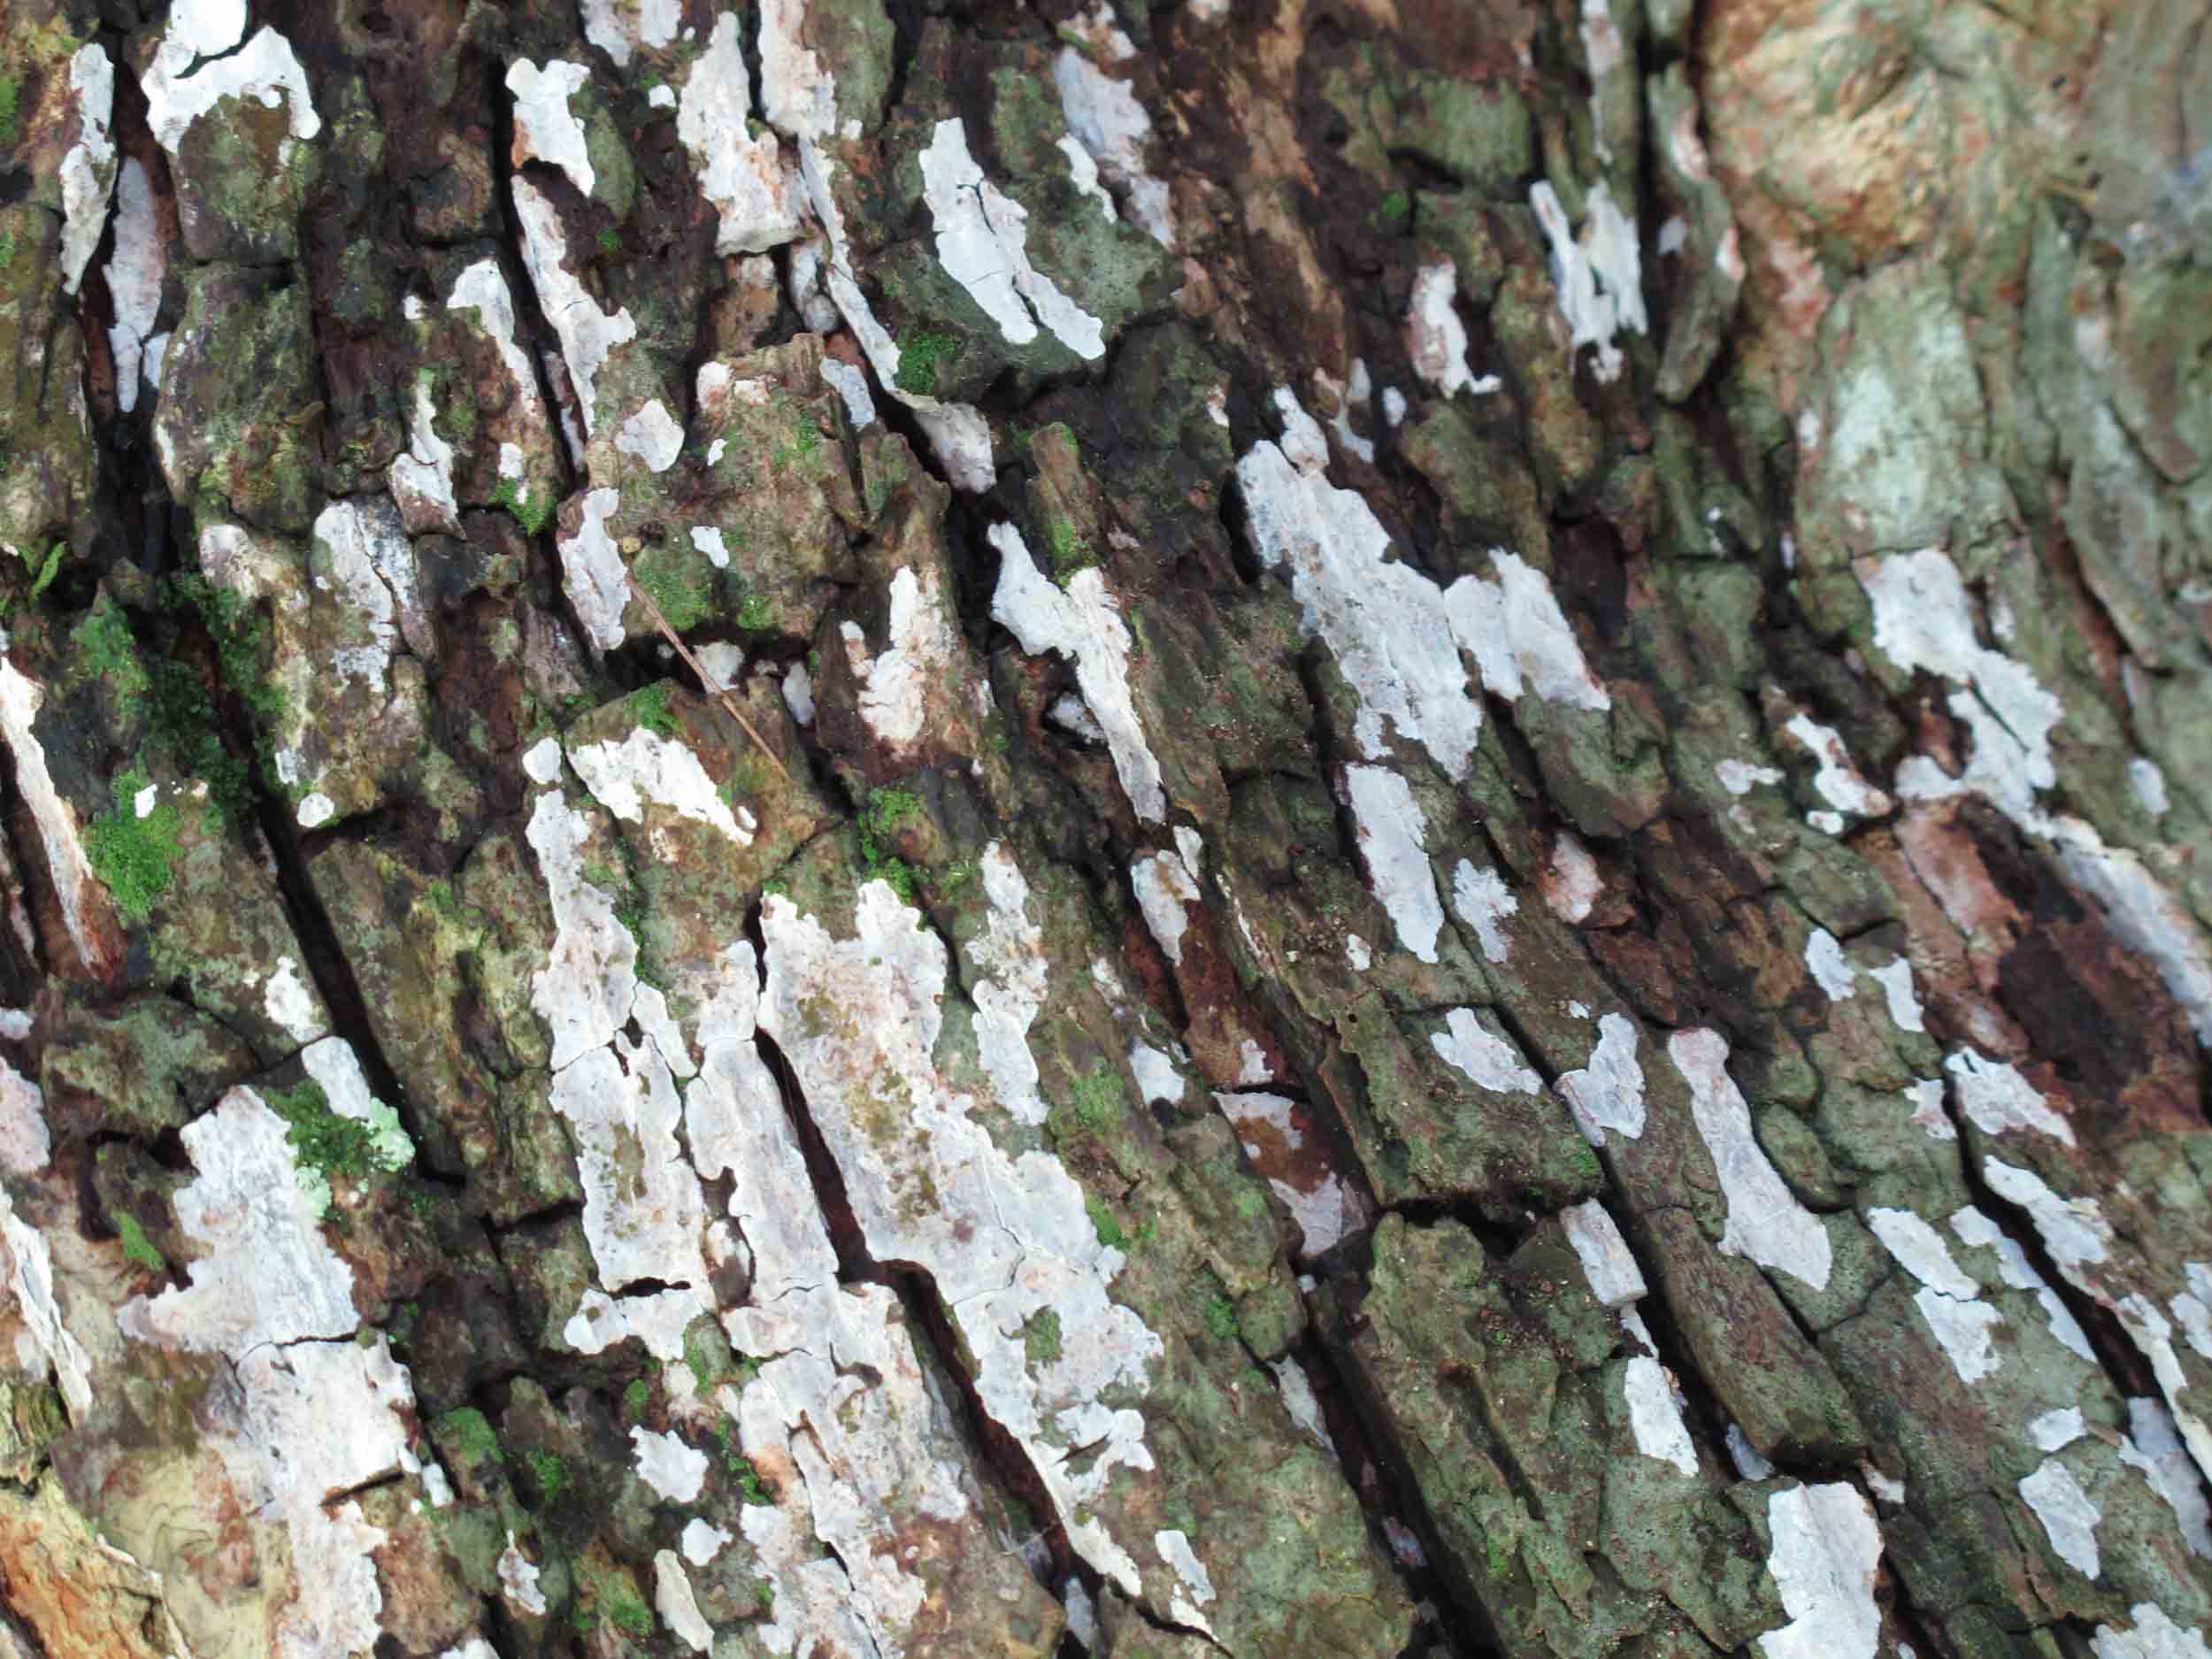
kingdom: Fungi
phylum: Basidiomycota
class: Agaricomycetes
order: Agaricales
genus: Dendrothele
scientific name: Dendrothele acerina
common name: navr-kalkplet
